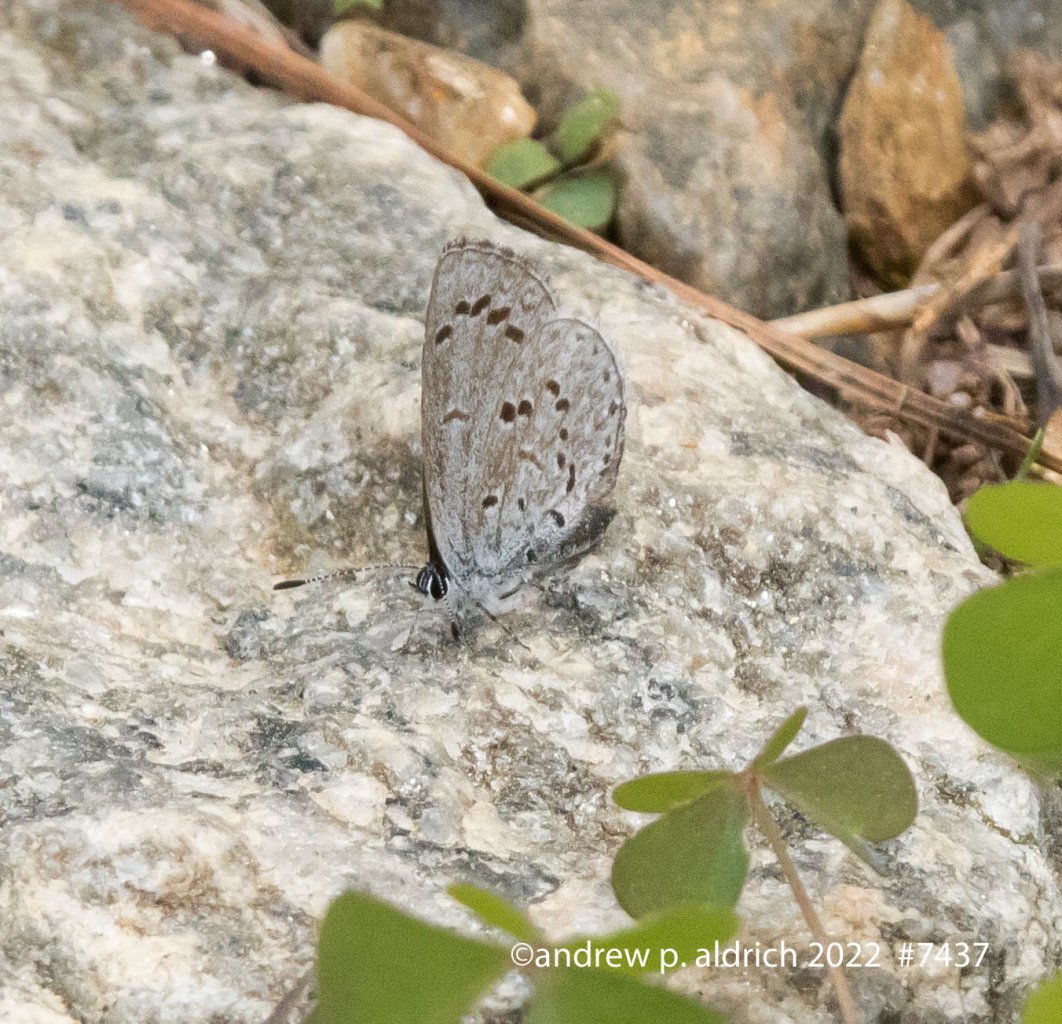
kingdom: Animalia
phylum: Arthropoda
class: Insecta
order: Lepidoptera
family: Lycaenidae
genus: Celastrina
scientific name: Celastrina
